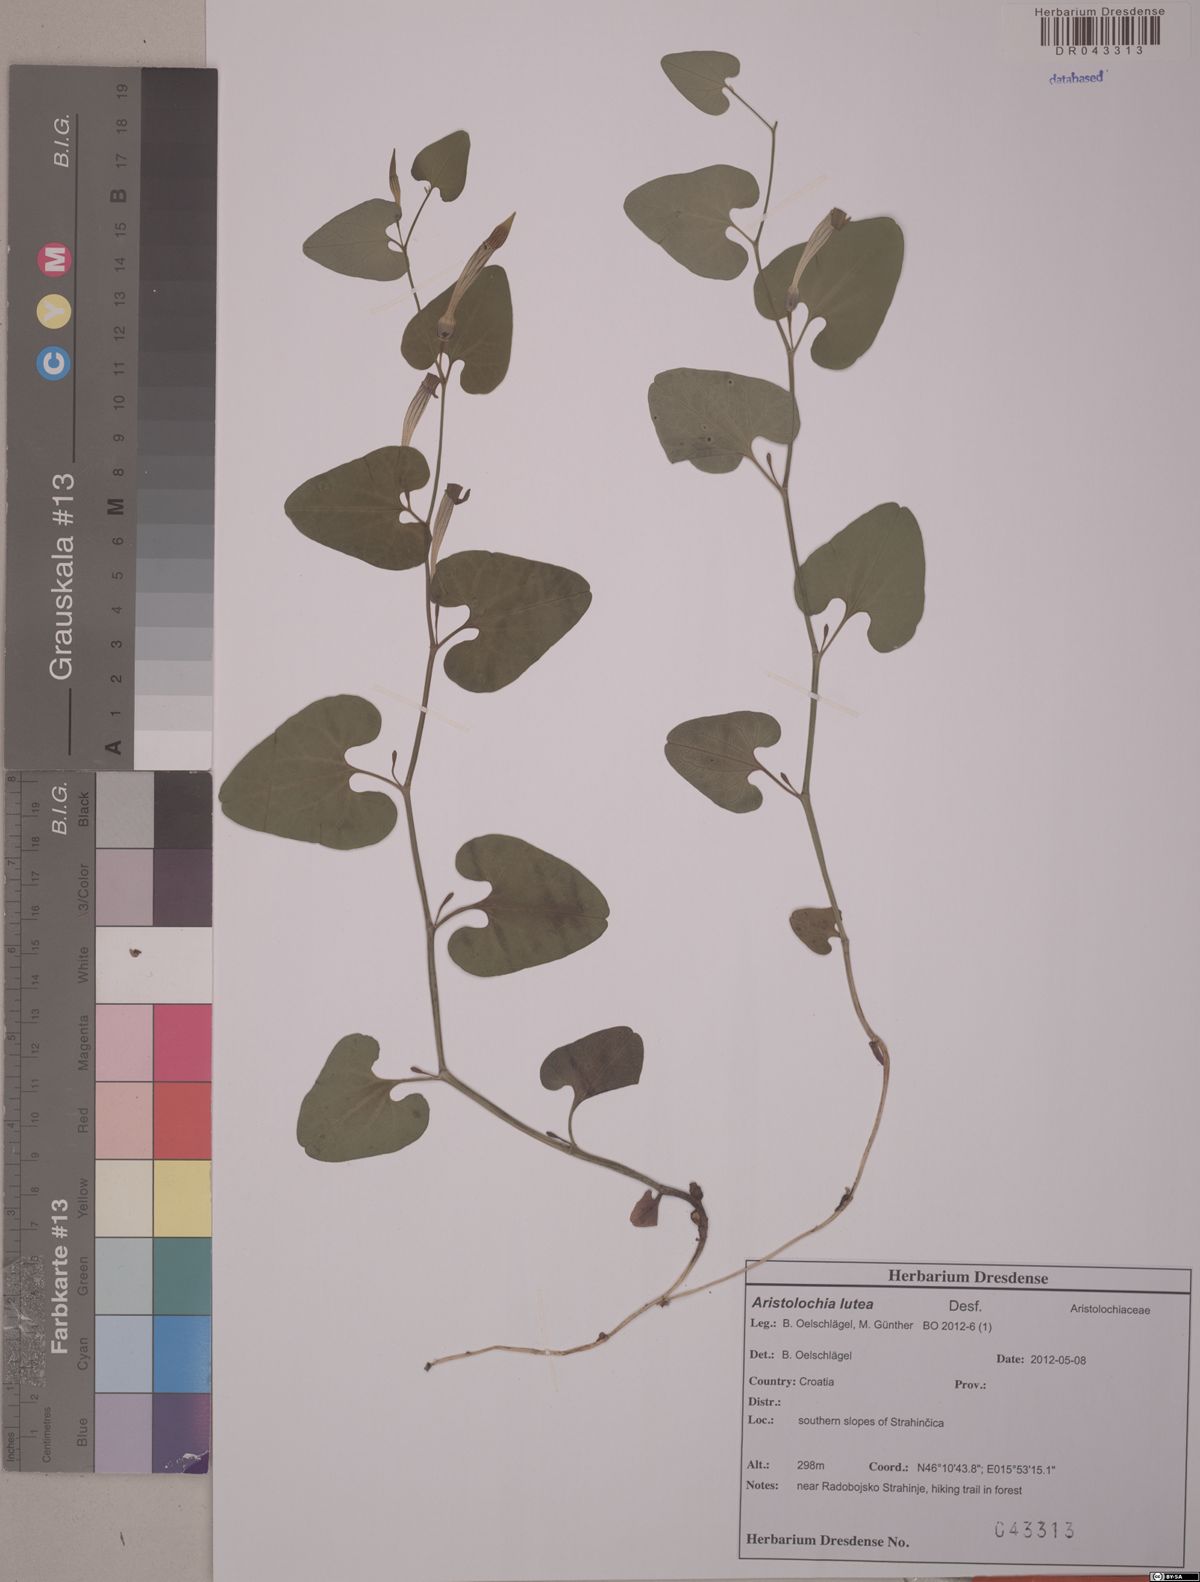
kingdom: Plantae
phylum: Tracheophyta
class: Magnoliopsida
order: Piperales
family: Aristolochiaceae
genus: Aristolochia
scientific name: Aristolochia lutea
